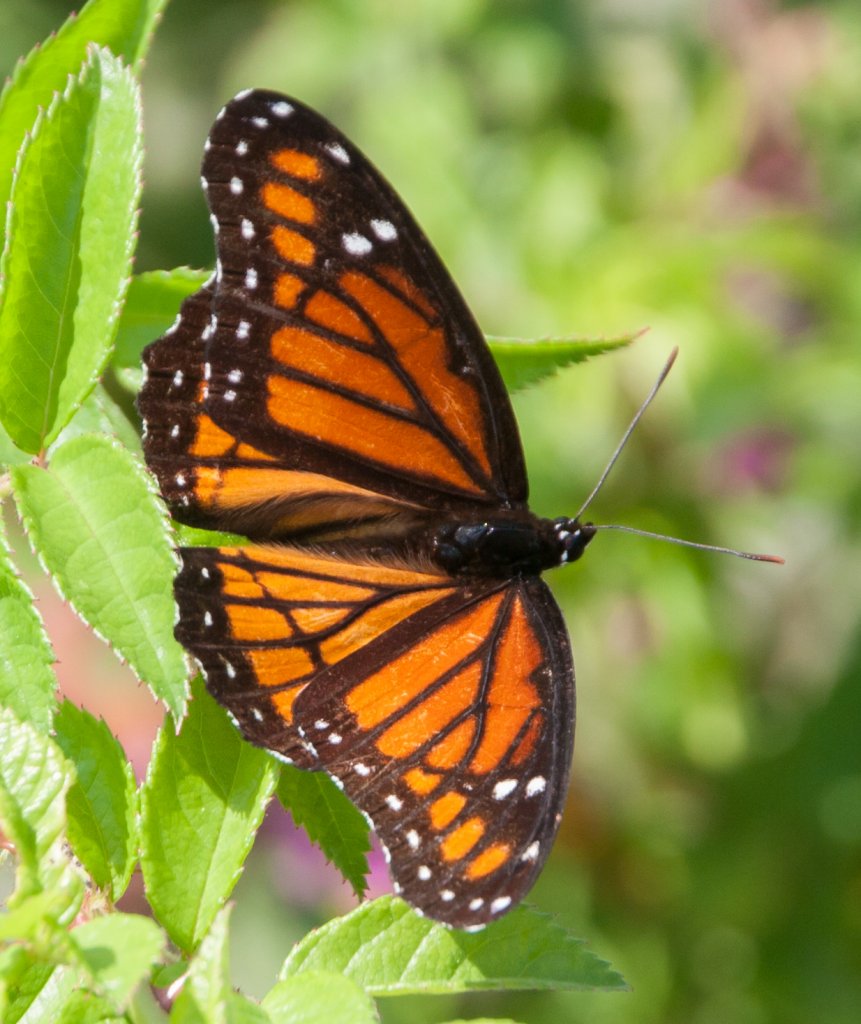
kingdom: Animalia
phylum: Arthropoda
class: Insecta
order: Lepidoptera
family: Nymphalidae
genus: Limenitis
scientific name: Limenitis archippus
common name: Viceroy
